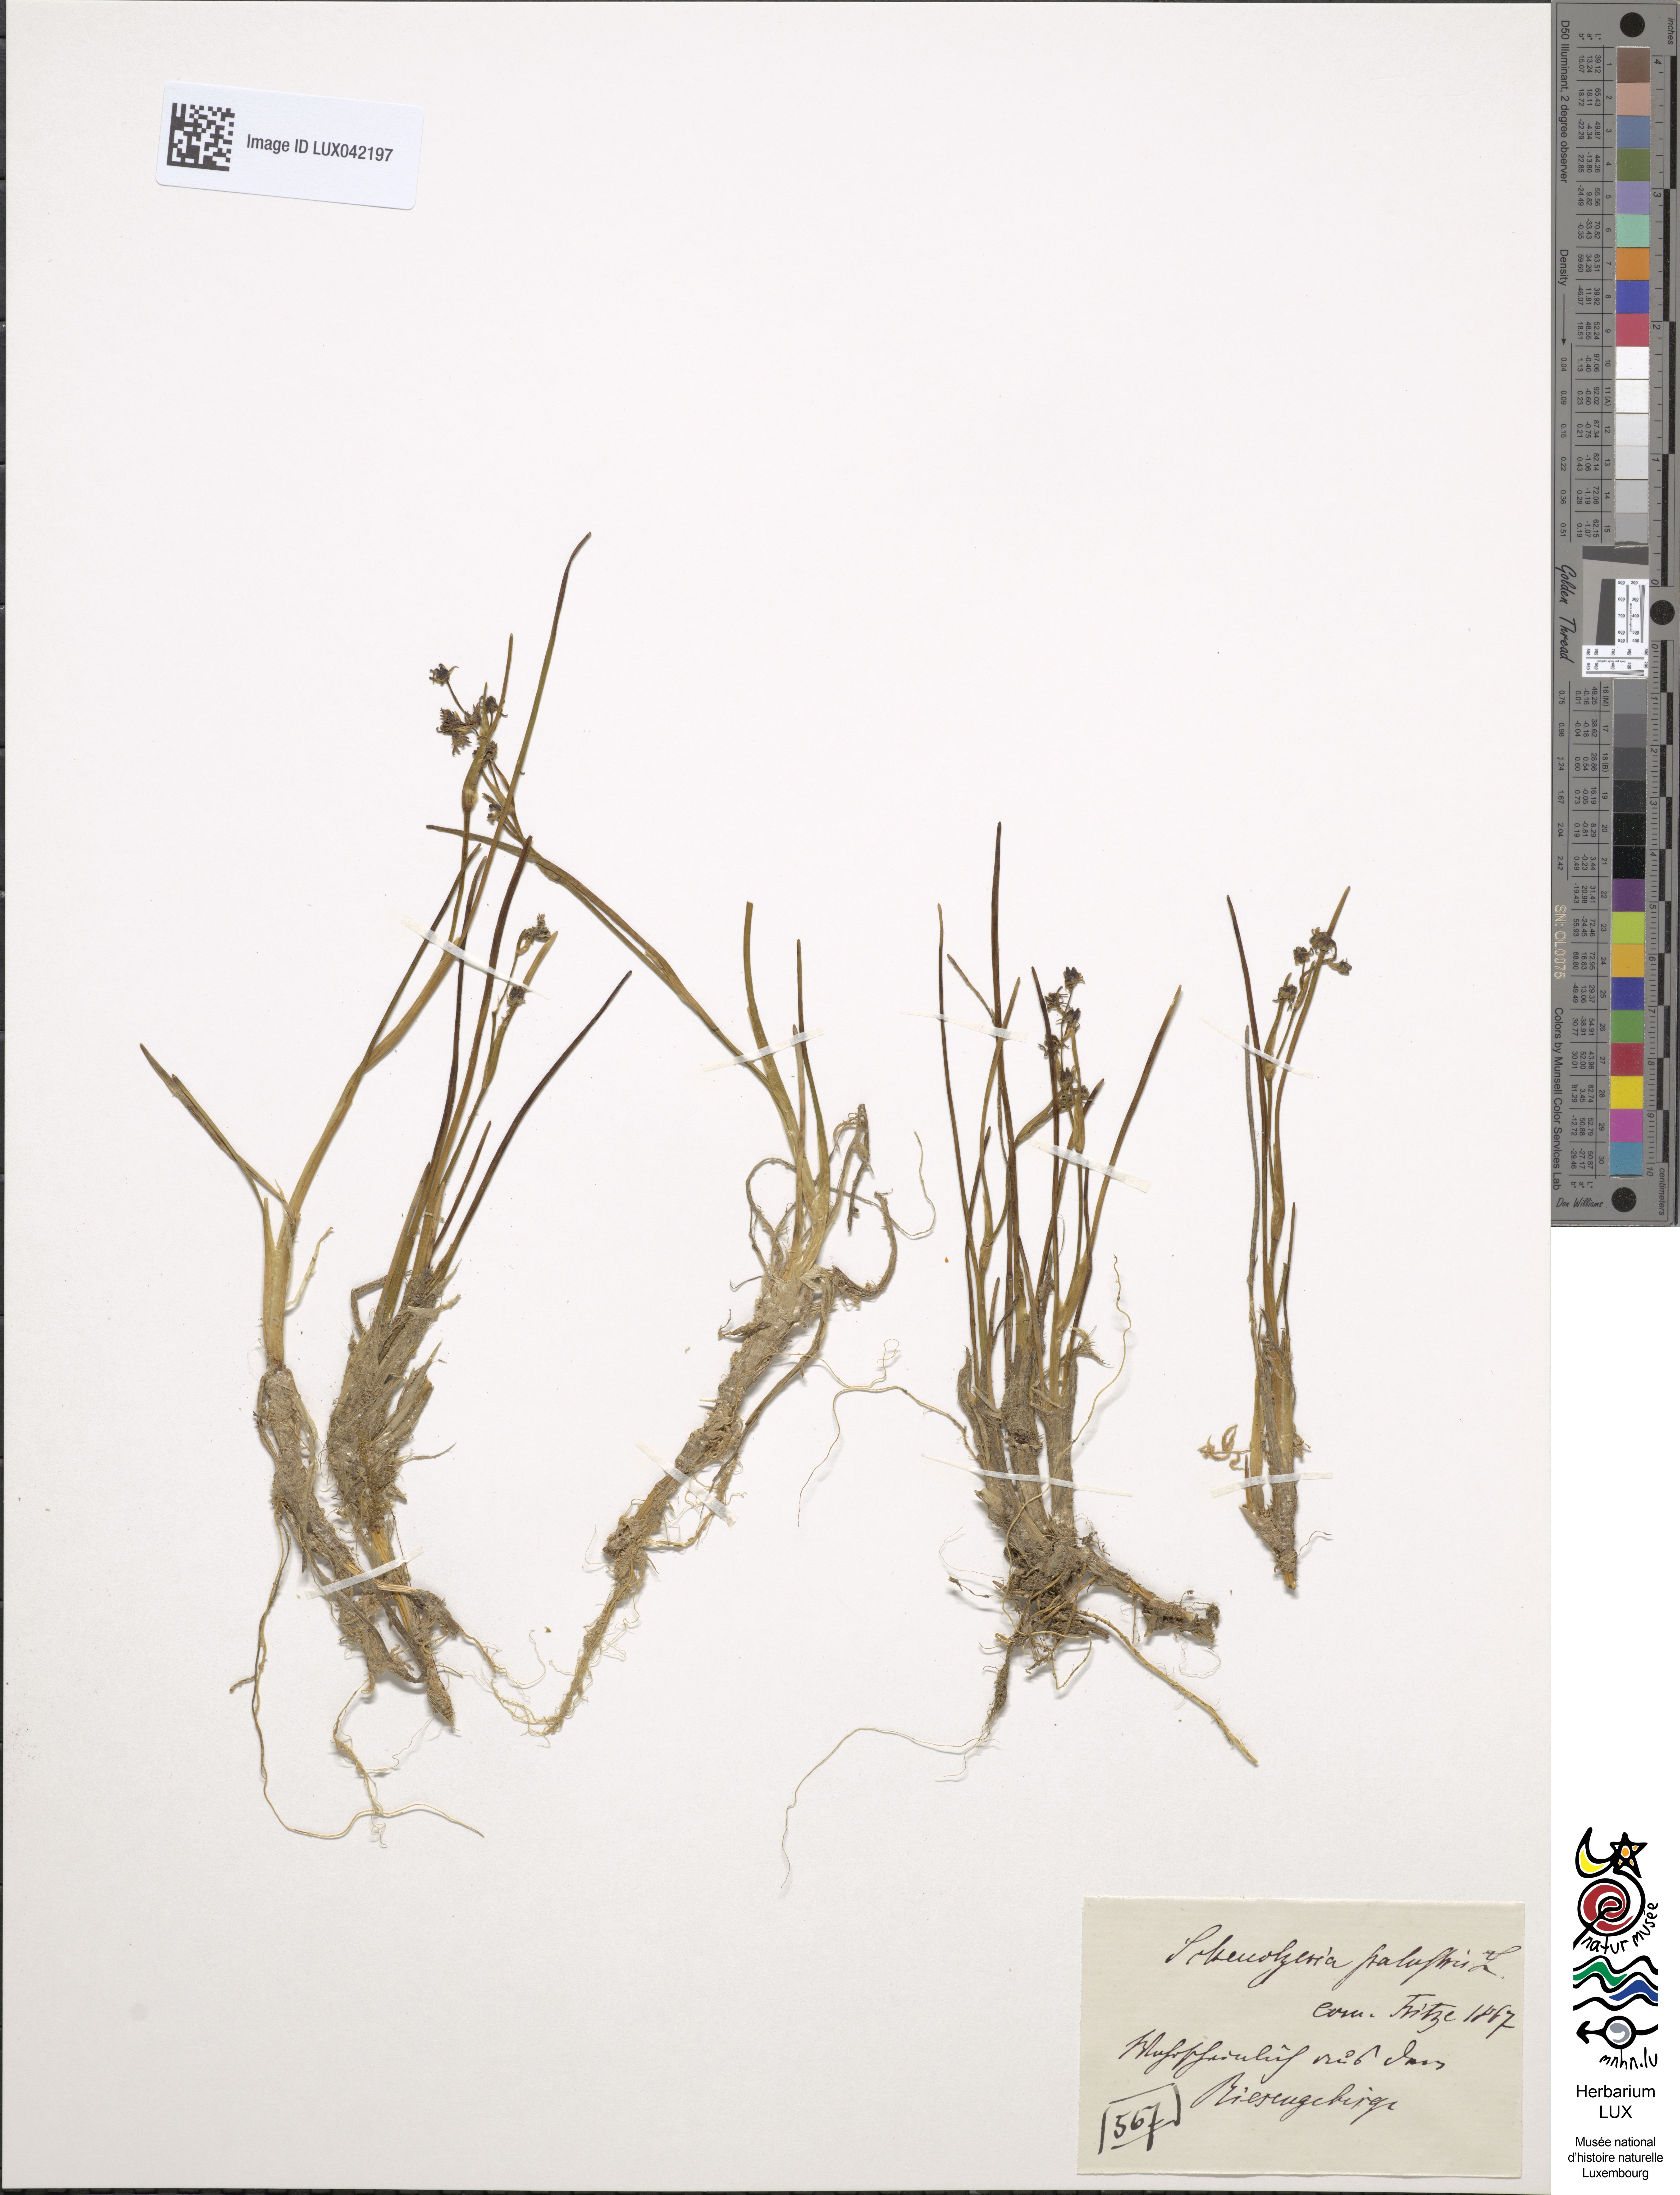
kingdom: Plantae
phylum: Tracheophyta
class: Liliopsida
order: Alismatales
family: Scheuchzeriaceae
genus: Scheuchzeria
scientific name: Scheuchzeria palustris
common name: Rannoch-rush
